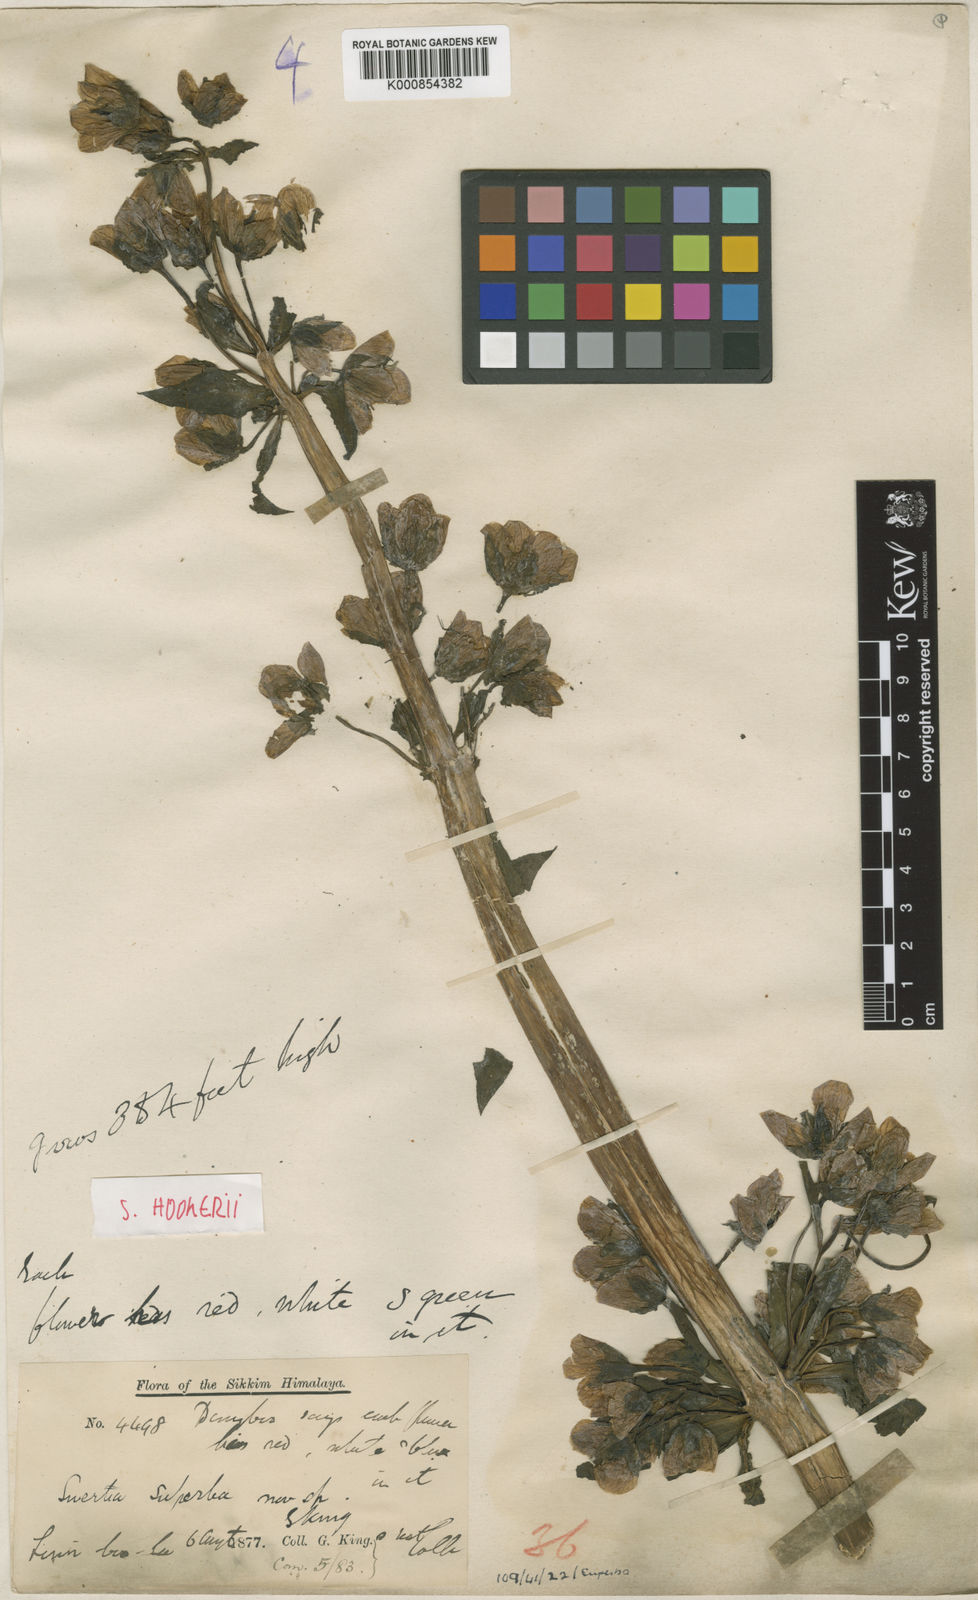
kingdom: Plantae
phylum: Tracheophyta
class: Magnoliopsida
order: Gentianales
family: Gentianaceae
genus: Swertia
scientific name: Swertia hookeri
